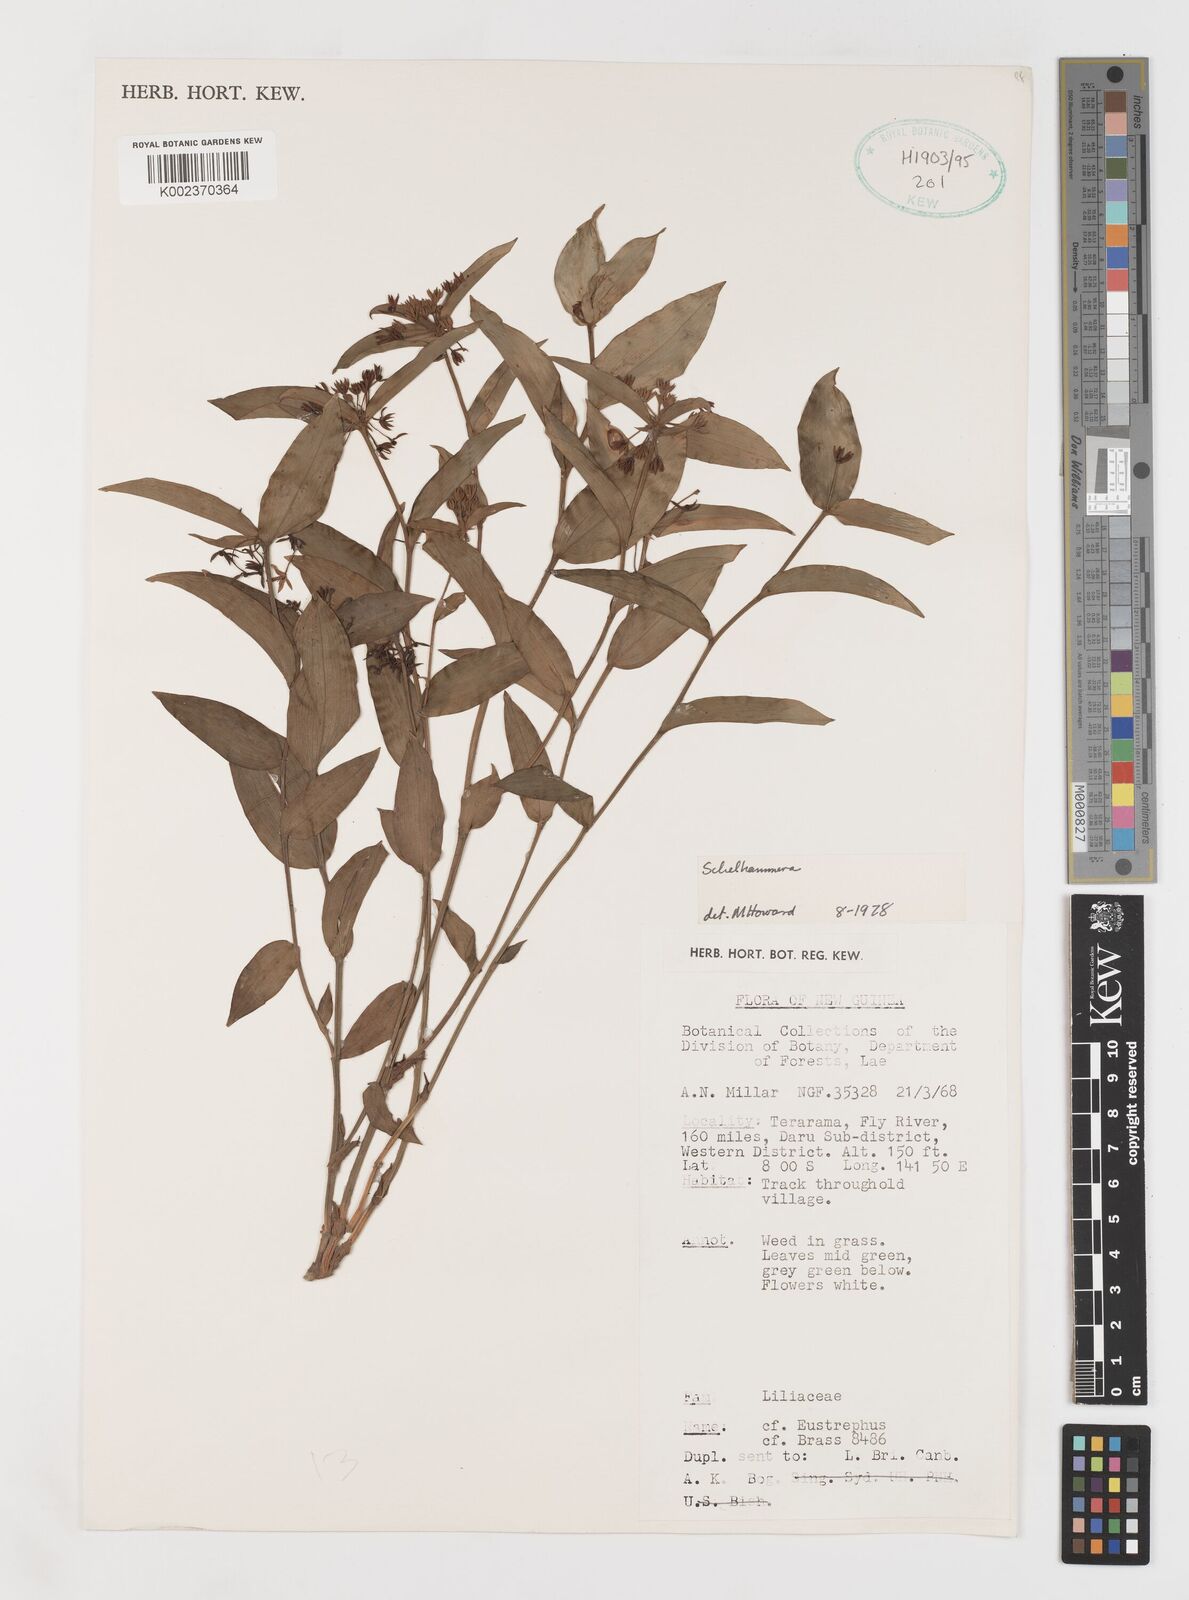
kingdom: Plantae
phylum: Tracheophyta
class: Liliopsida
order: Liliales
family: Colchicaceae
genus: Schelhammera
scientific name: Schelhammera
